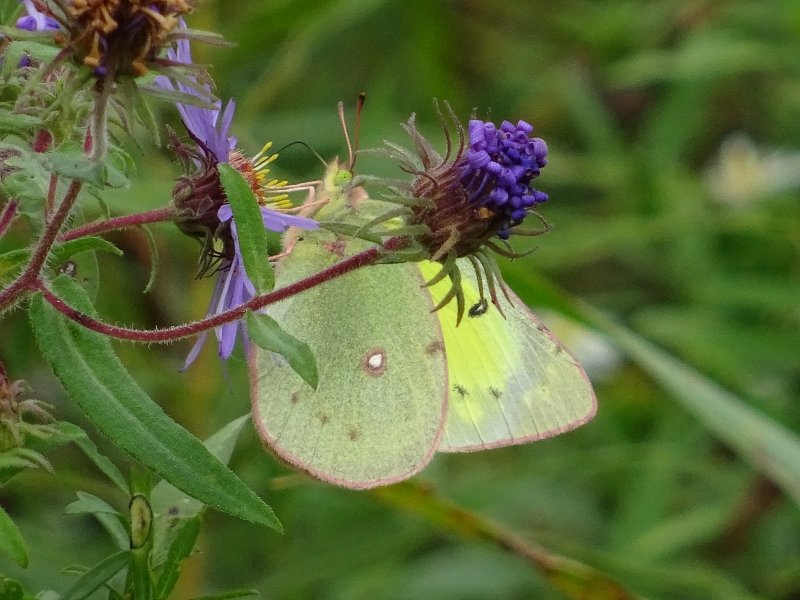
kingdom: Animalia
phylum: Arthropoda
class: Insecta
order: Lepidoptera
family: Pieridae
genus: Colias
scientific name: Colias philodice
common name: Clouded Sulphur
